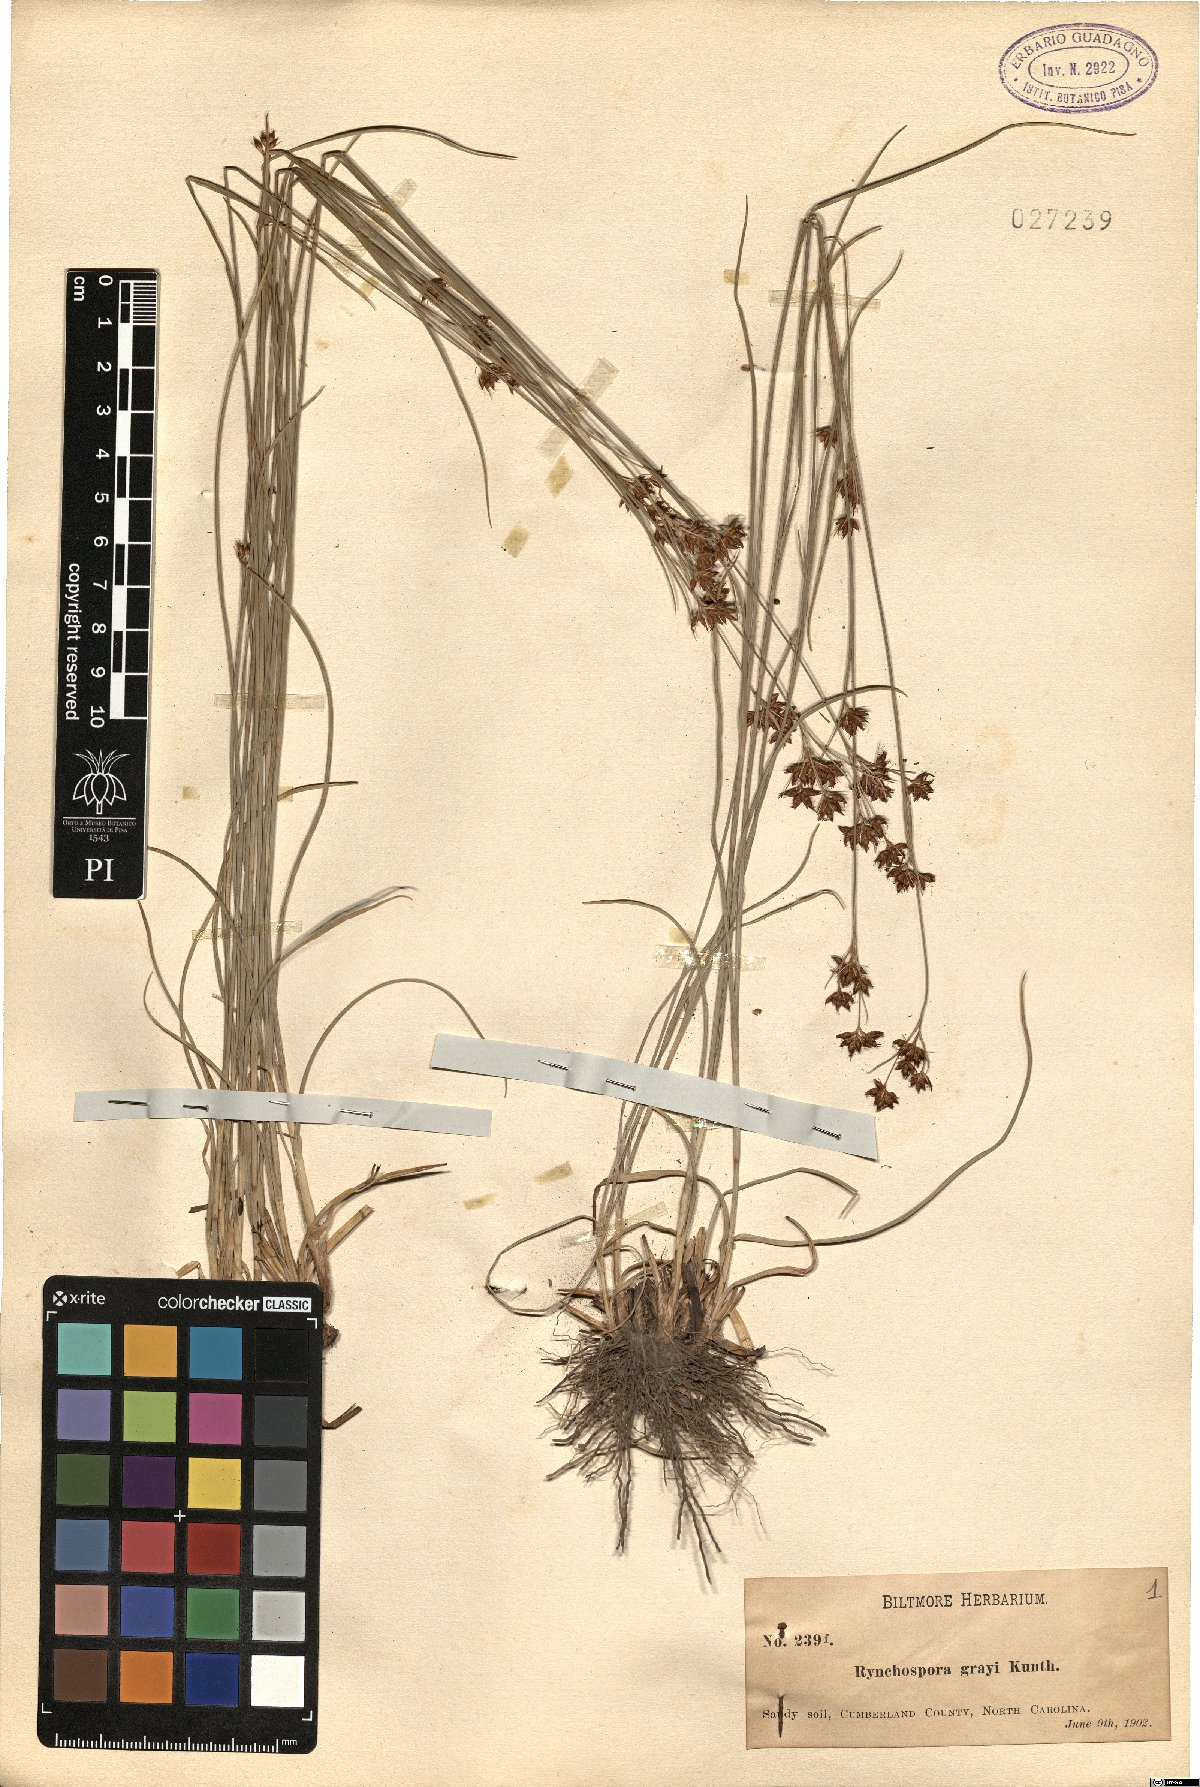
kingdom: Plantae
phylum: Tracheophyta
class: Liliopsida
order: Poales
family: Cyperaceae
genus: Rhynchospora
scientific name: Rhynchospora grayi
